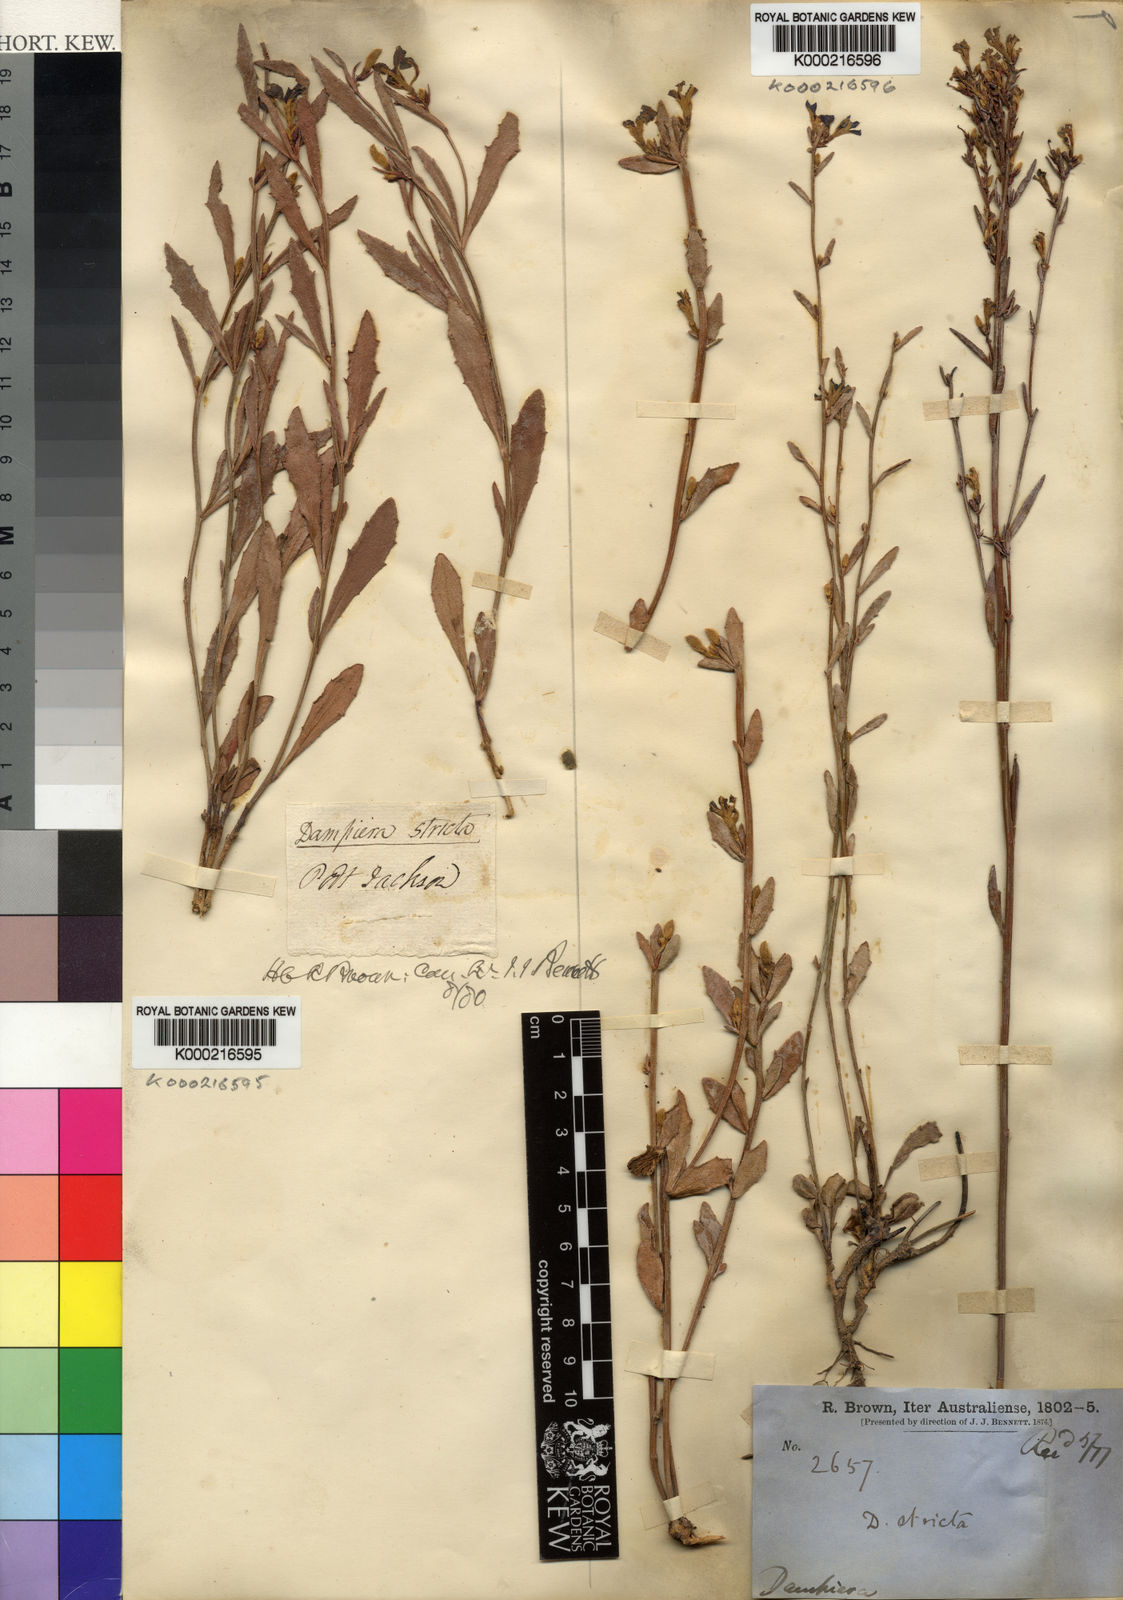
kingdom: Plantae
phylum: Tracheophyta
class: Magnoliopsida
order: Asterales
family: Goodeniaceae
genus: Dampiera
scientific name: Dampiera stricta
